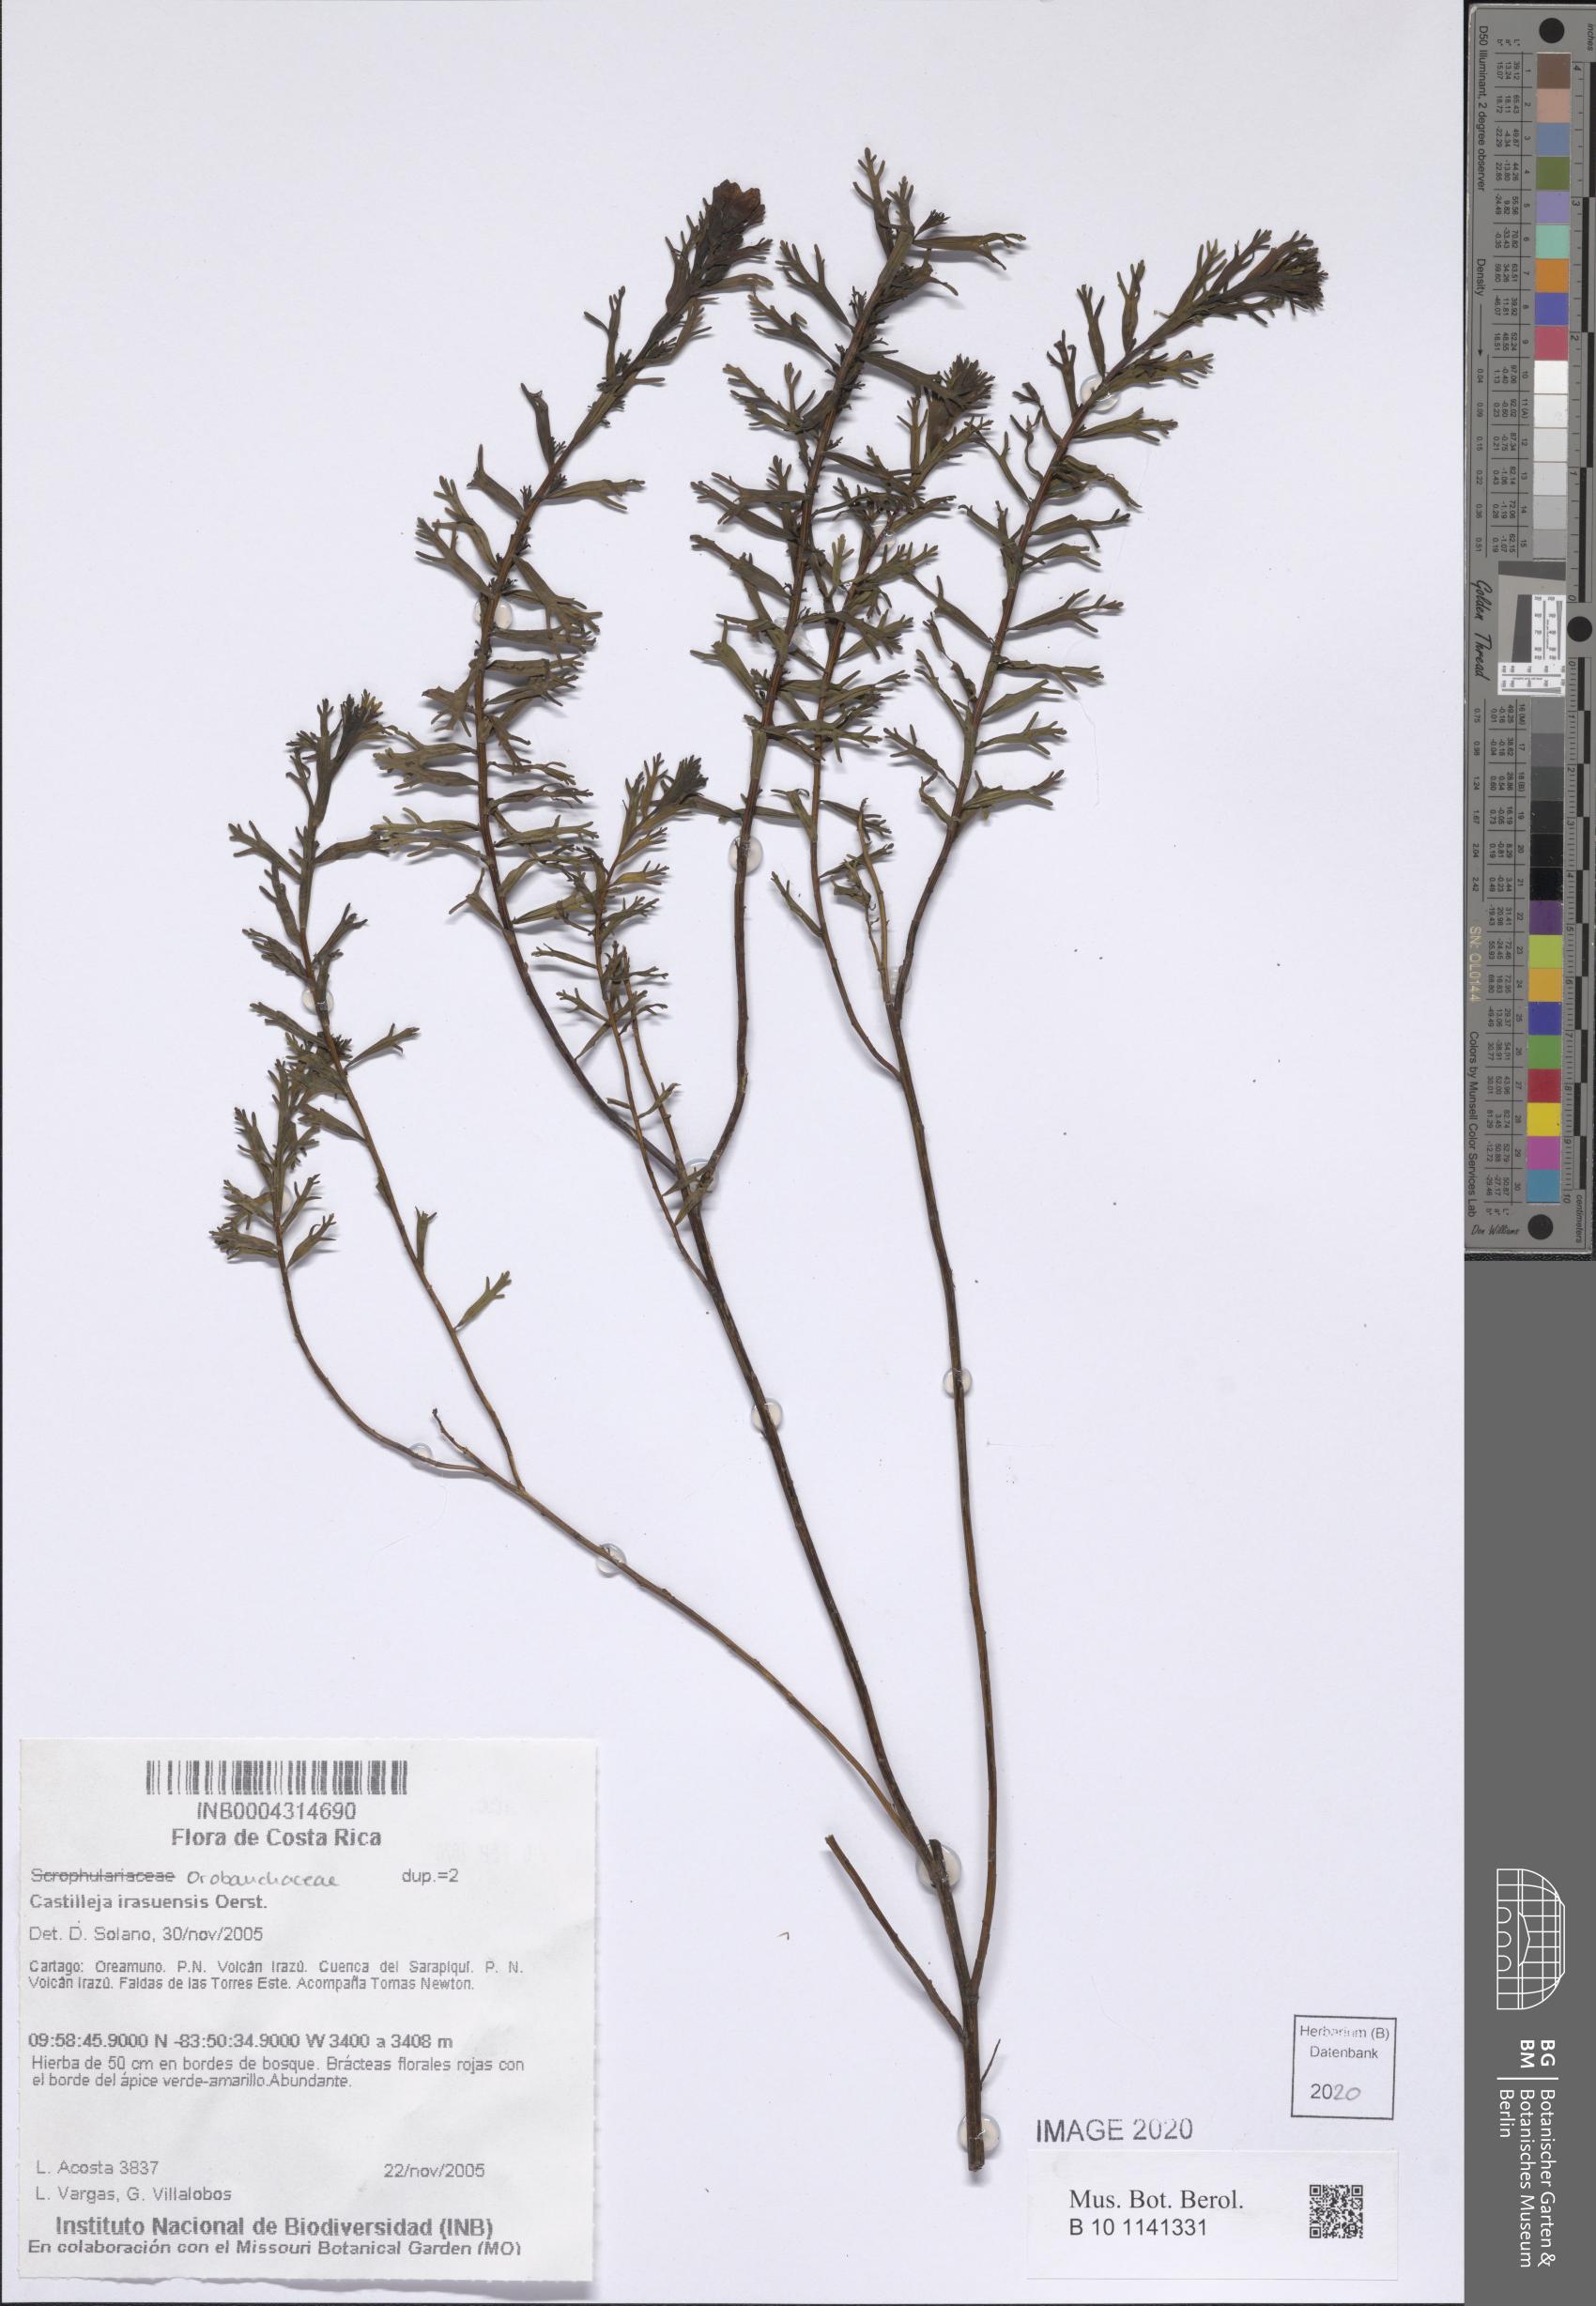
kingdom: Plantae
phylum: Tracheophyta
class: Magnoliopsida
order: Lamiales
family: Orobanchaceae
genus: Castilleja
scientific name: Castilleja irasuensis
